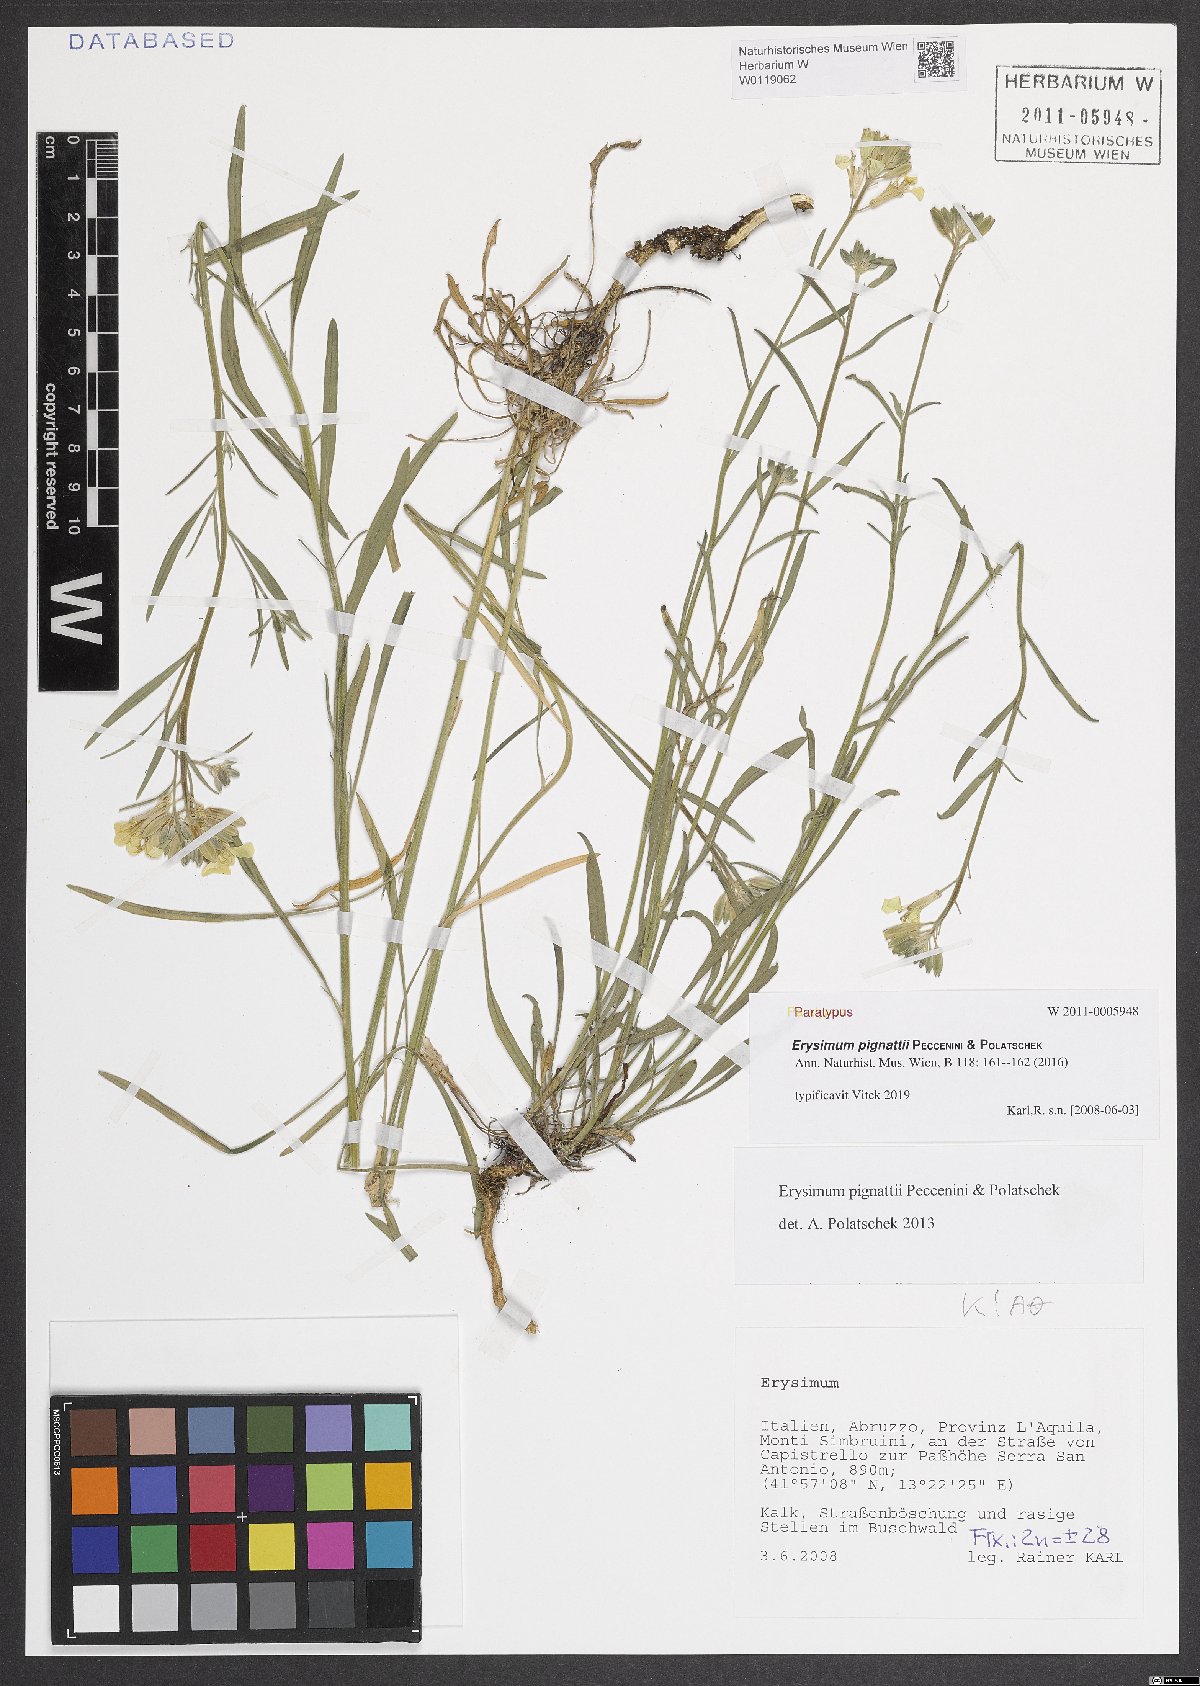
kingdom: Plantae
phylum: Tracheophyta
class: Magnoliopsida
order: Brassicales
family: Brassicaceae
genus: Erysimum
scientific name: Erysimum pignattii
